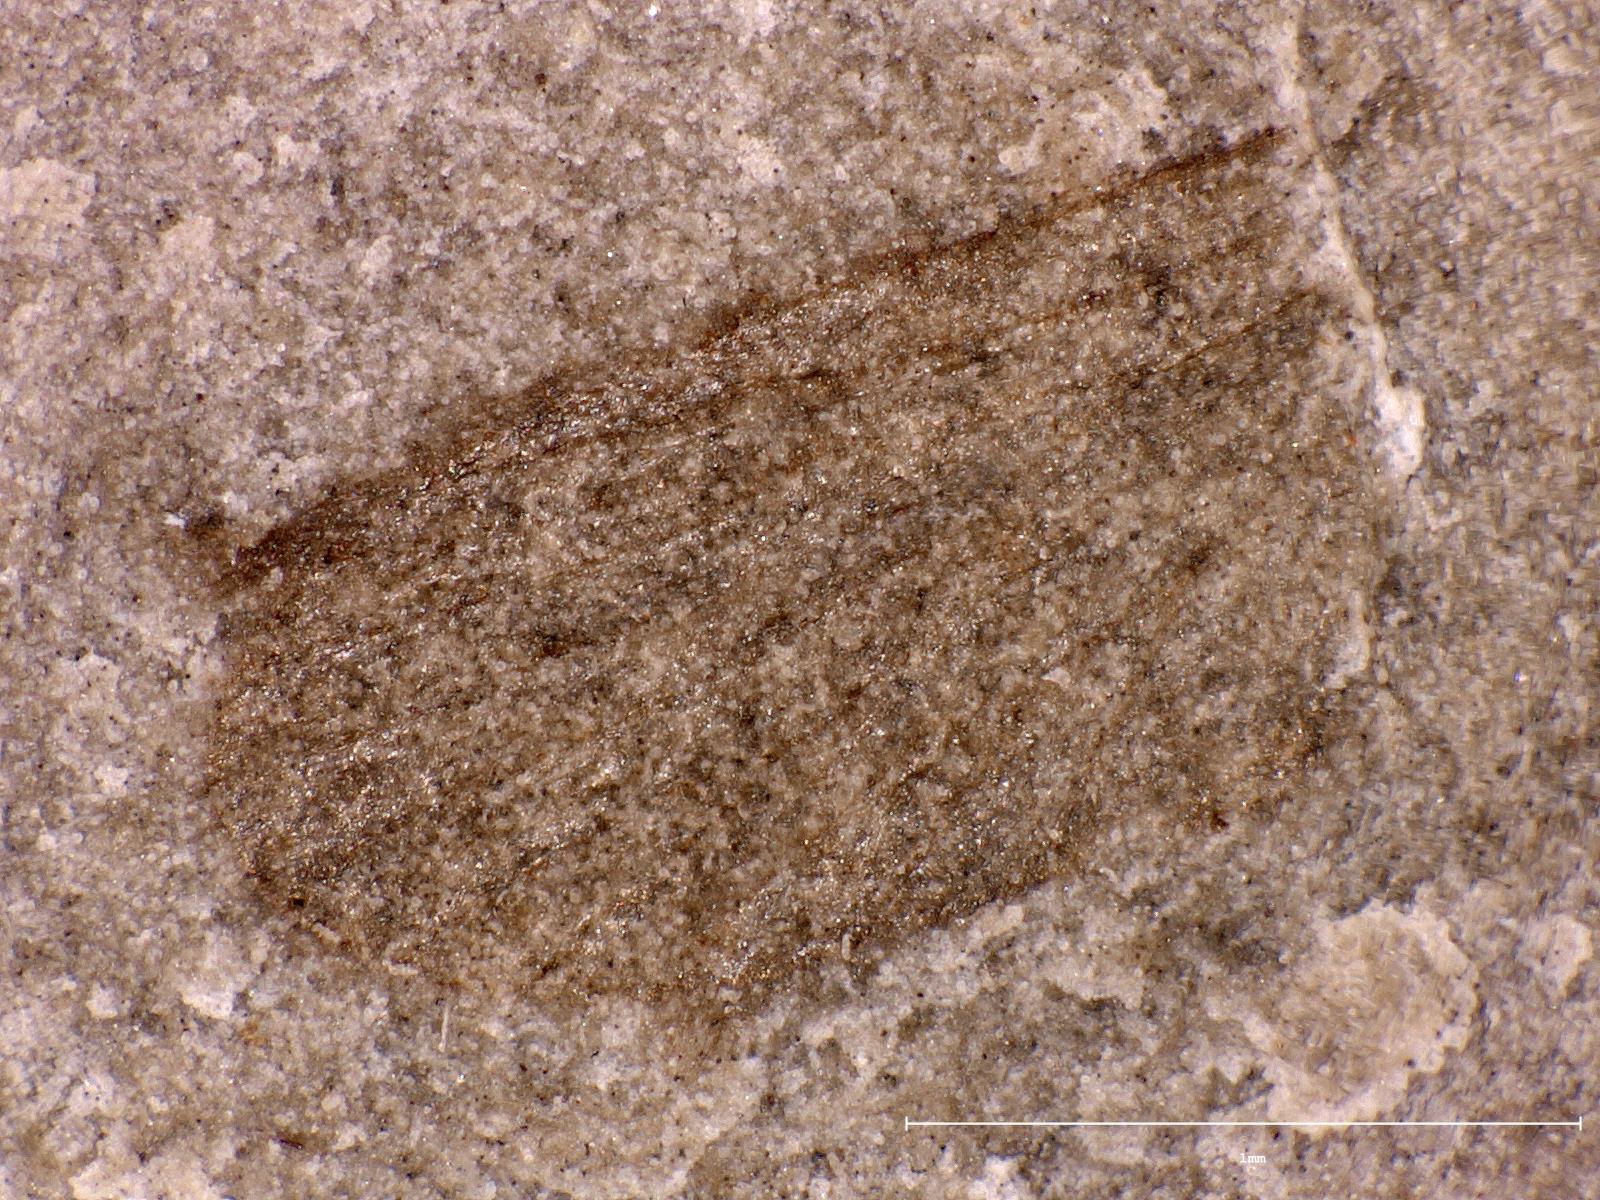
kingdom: Animalia
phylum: Arthropoda
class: Insecta
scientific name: Insecta
